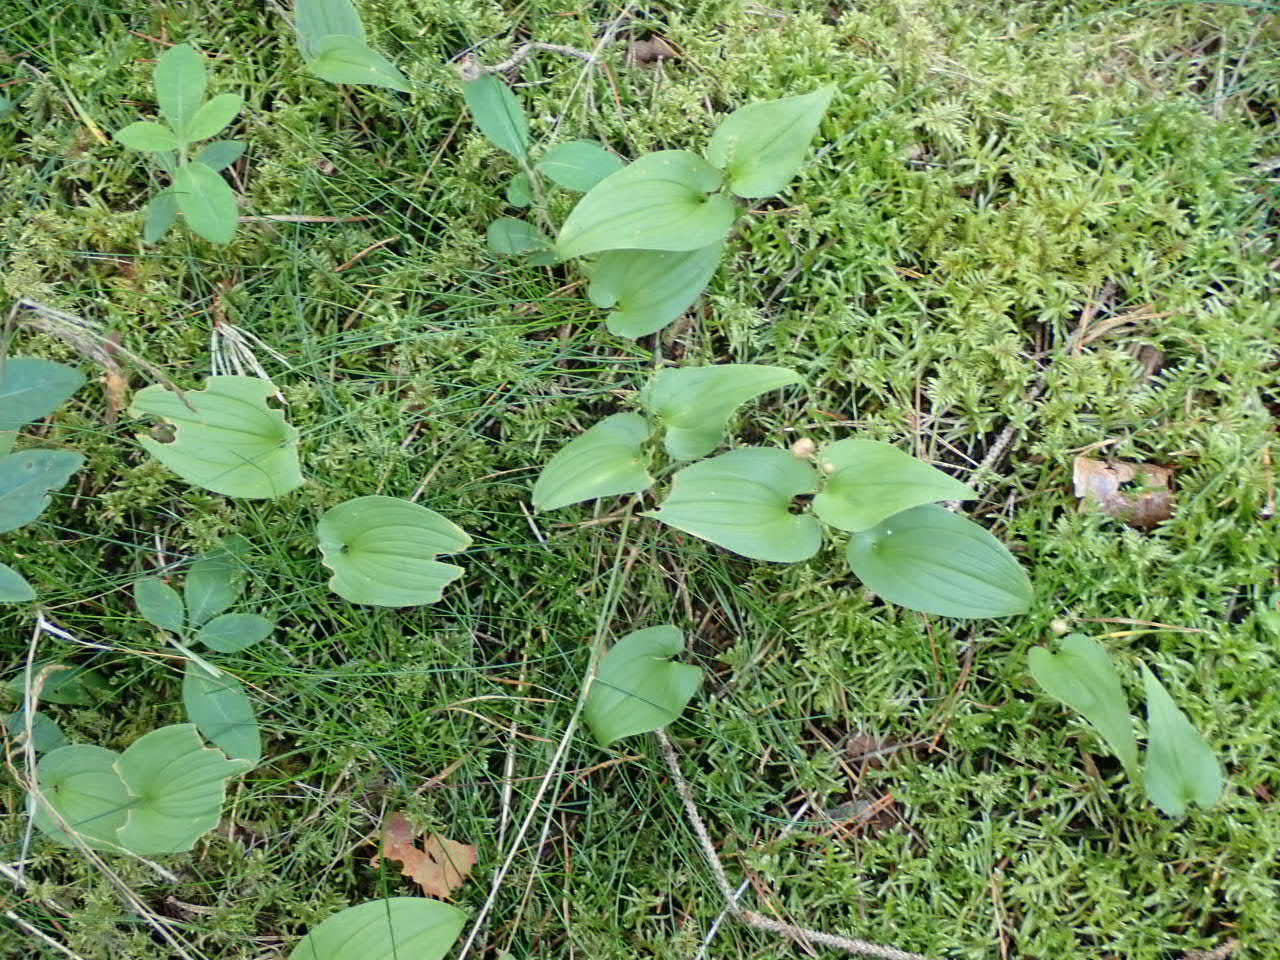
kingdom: Plantae
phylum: Tracheophyta
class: Liliopsida
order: Asparagales
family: Asparagaceae
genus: Maianthemum
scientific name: Maianthemum bifolium
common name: Majblomst
